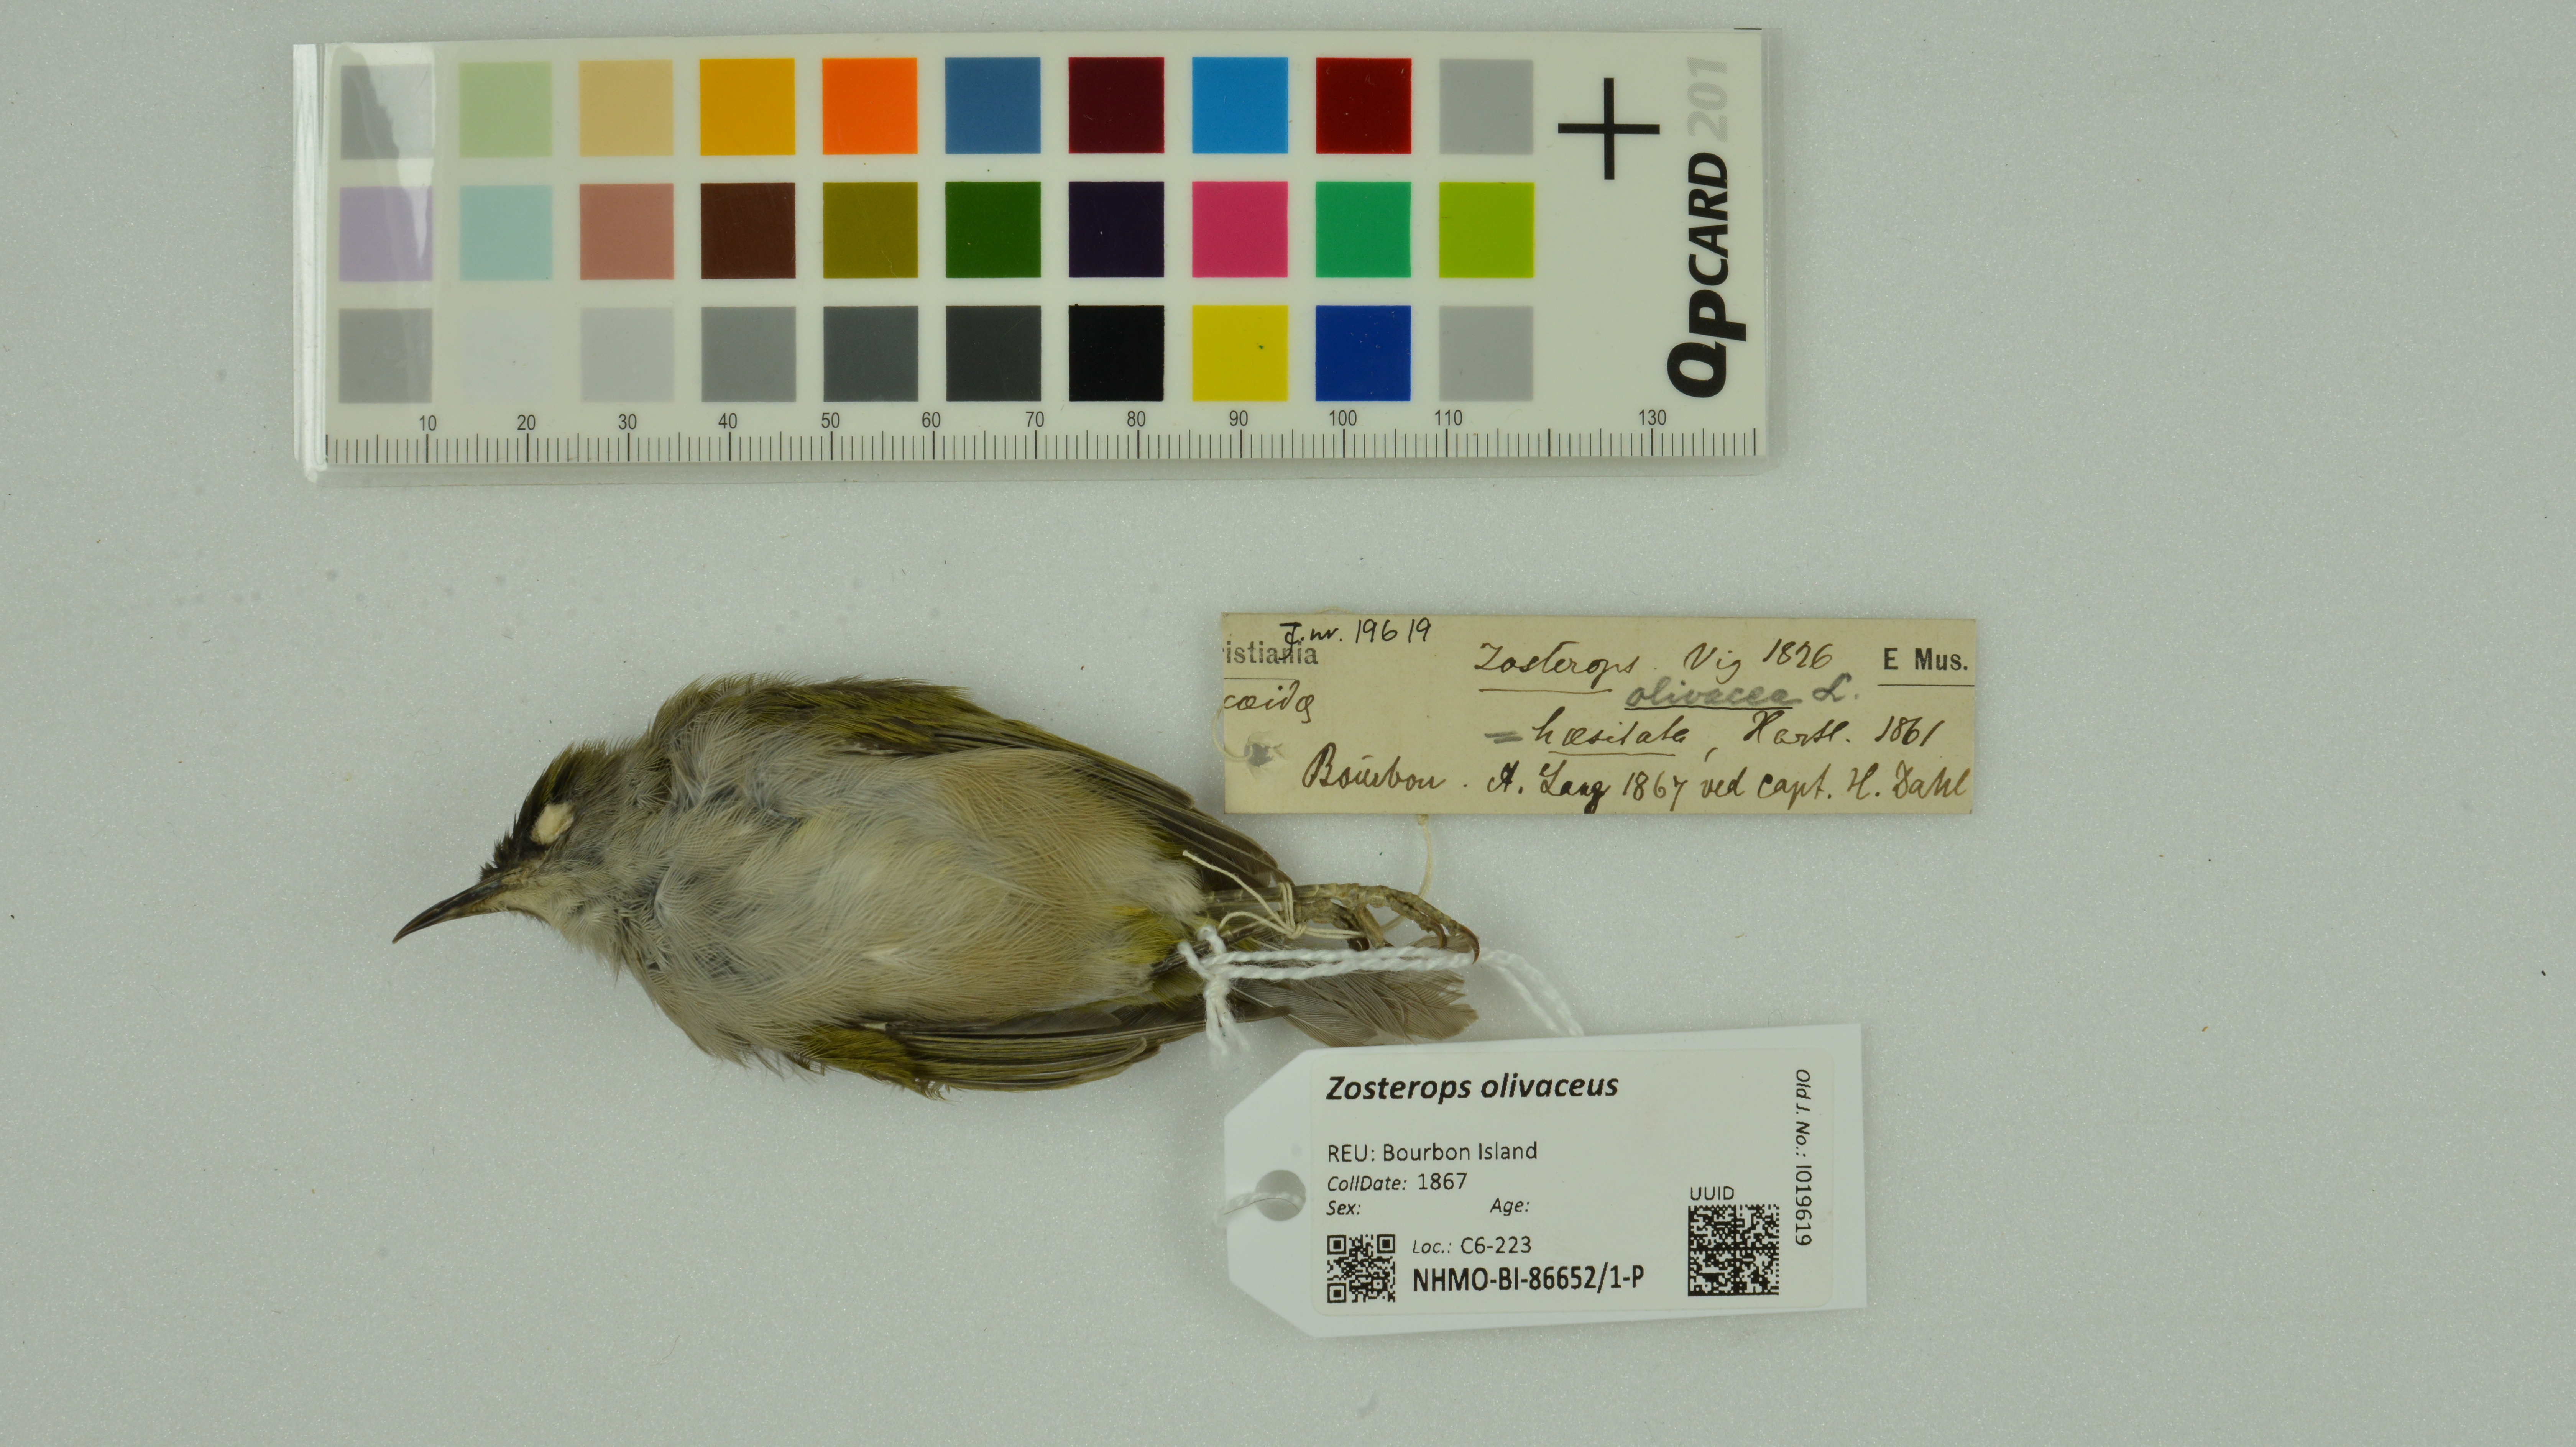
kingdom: Animalia
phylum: Chordata
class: Aves
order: Passeriformes
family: Zosteropidae
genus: Zosterops
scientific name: Zosterops olivaceus
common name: Reunion olive white-eye
